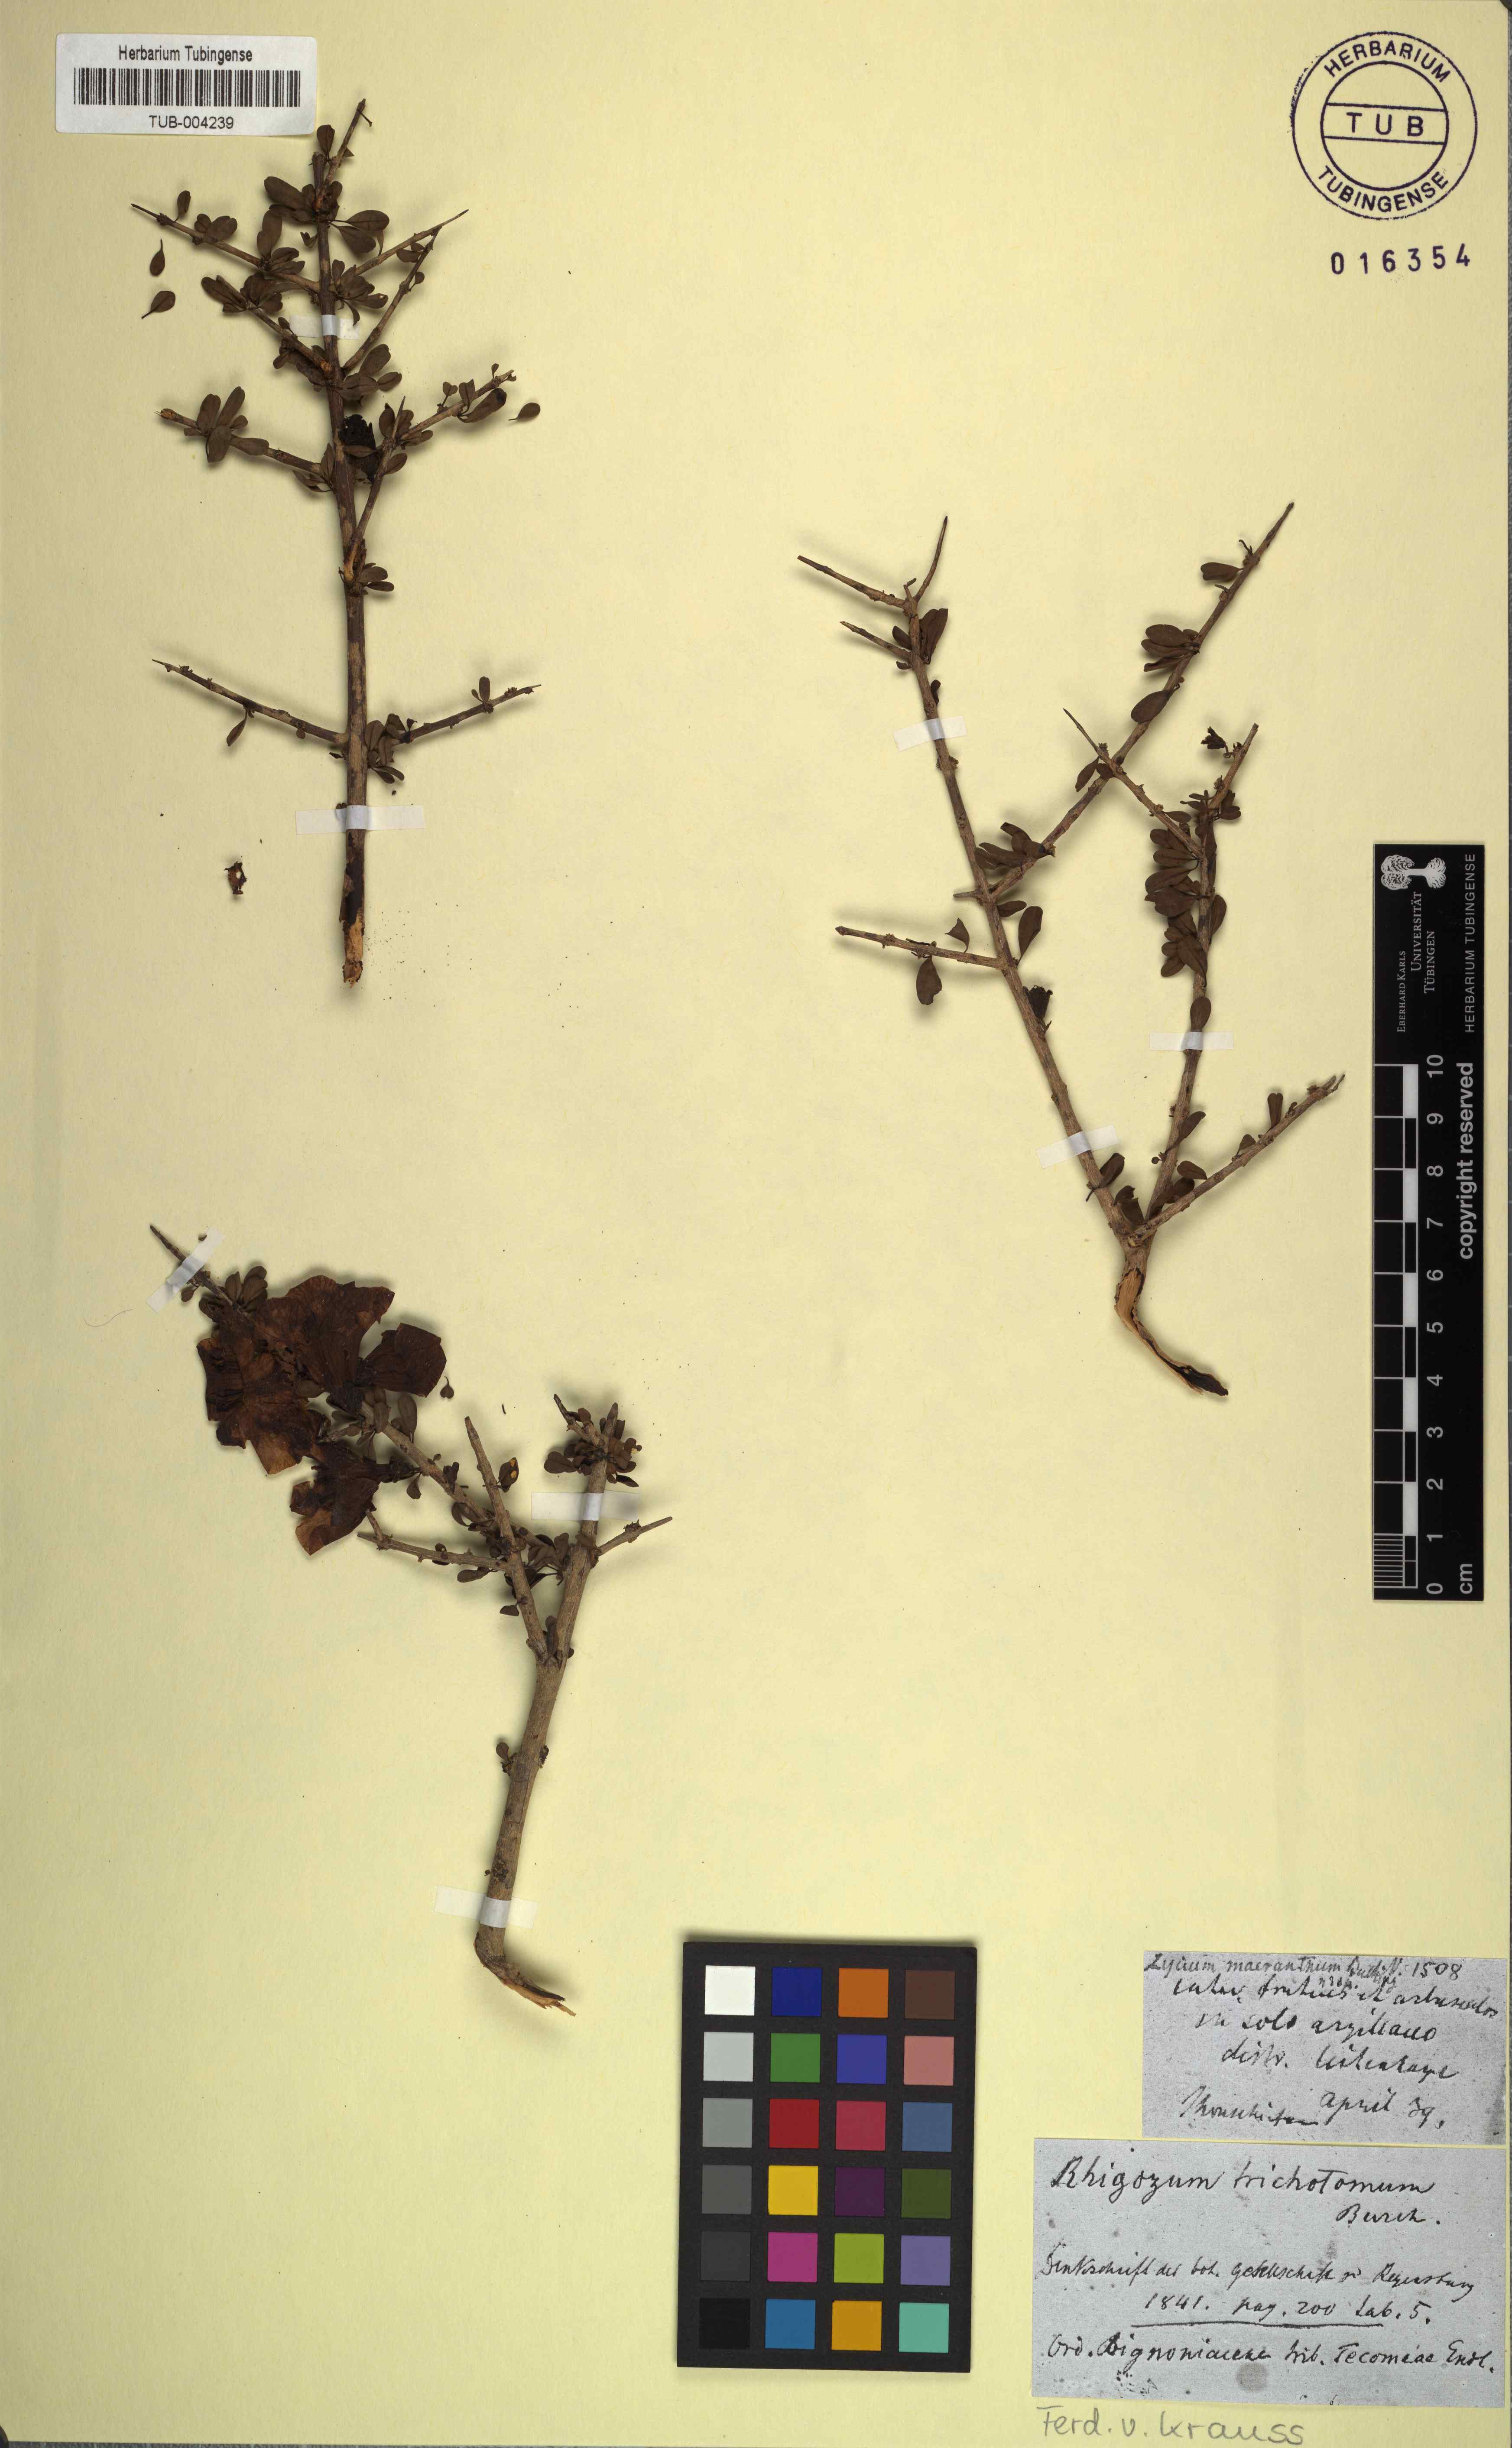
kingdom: Plantae
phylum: Tracheophyta
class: Magnoliopsida
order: Lamiales
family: Bignoniaceae
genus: Rhigozum
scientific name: Rhigozum trichotomum
